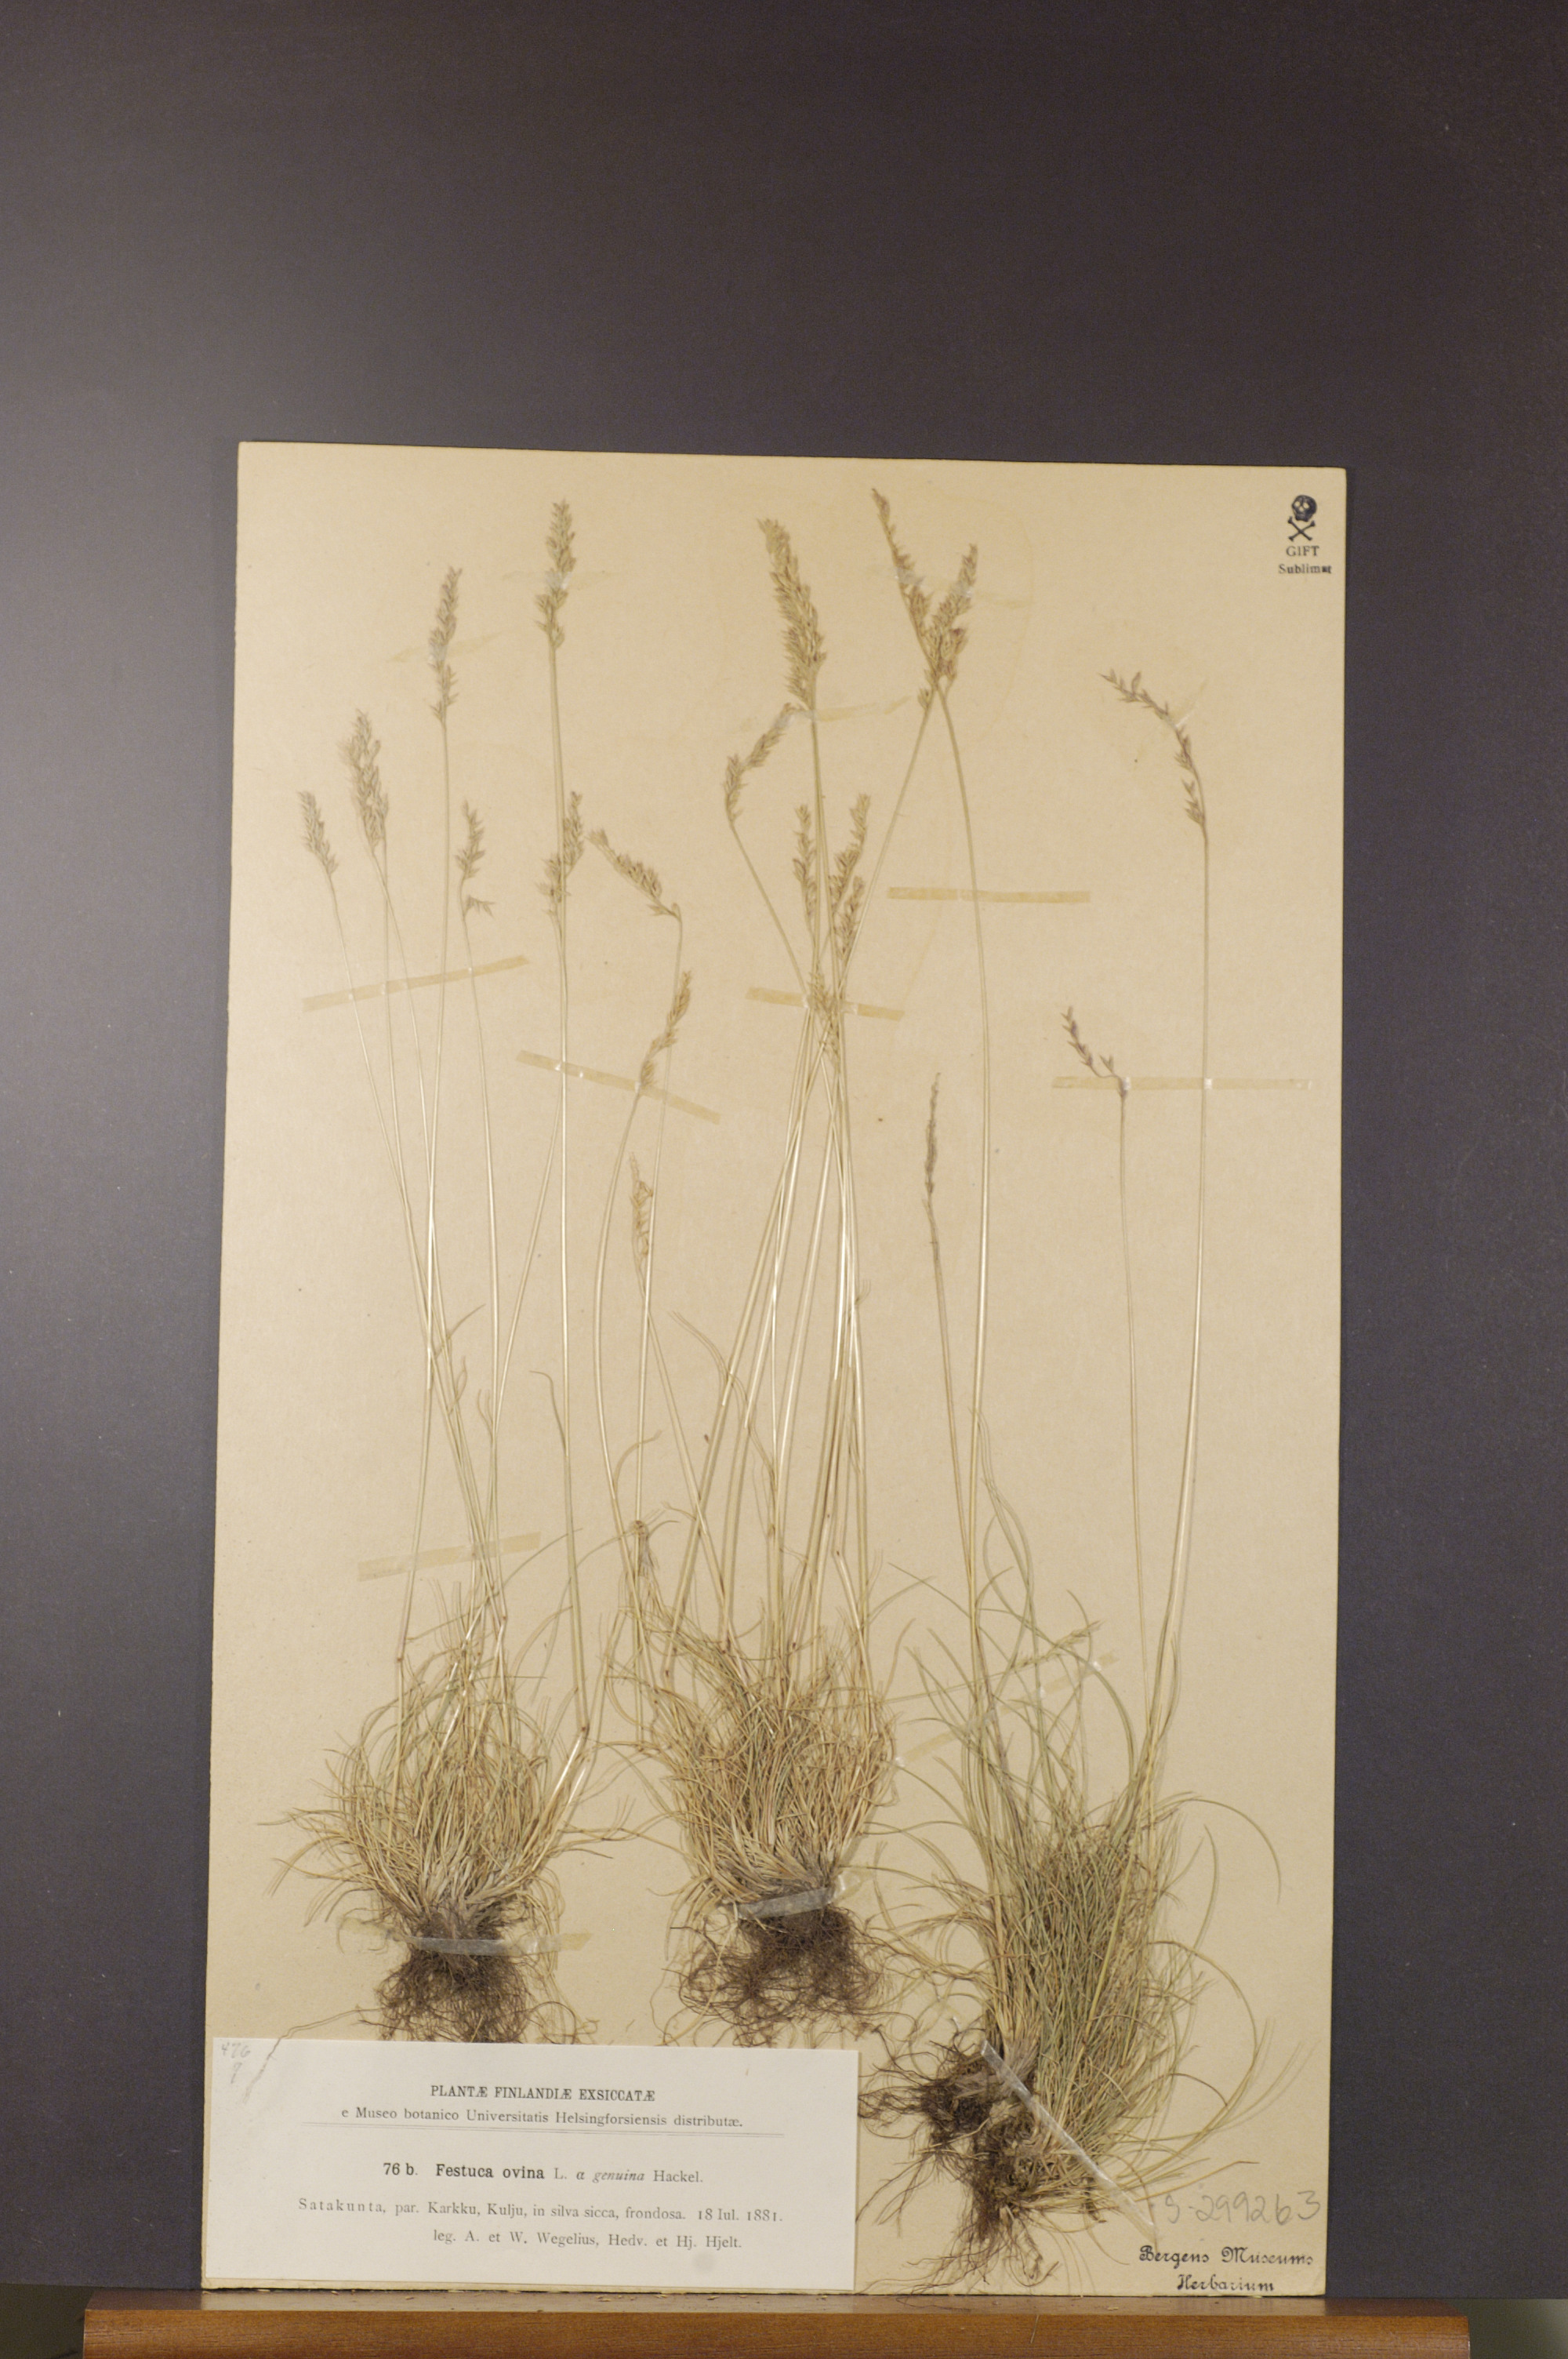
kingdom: Plantae
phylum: Tracheophyta
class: Liliopsida
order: Poales
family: Poaceae
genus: Festuca
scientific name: Festuca ovina
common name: Sheep fescue
